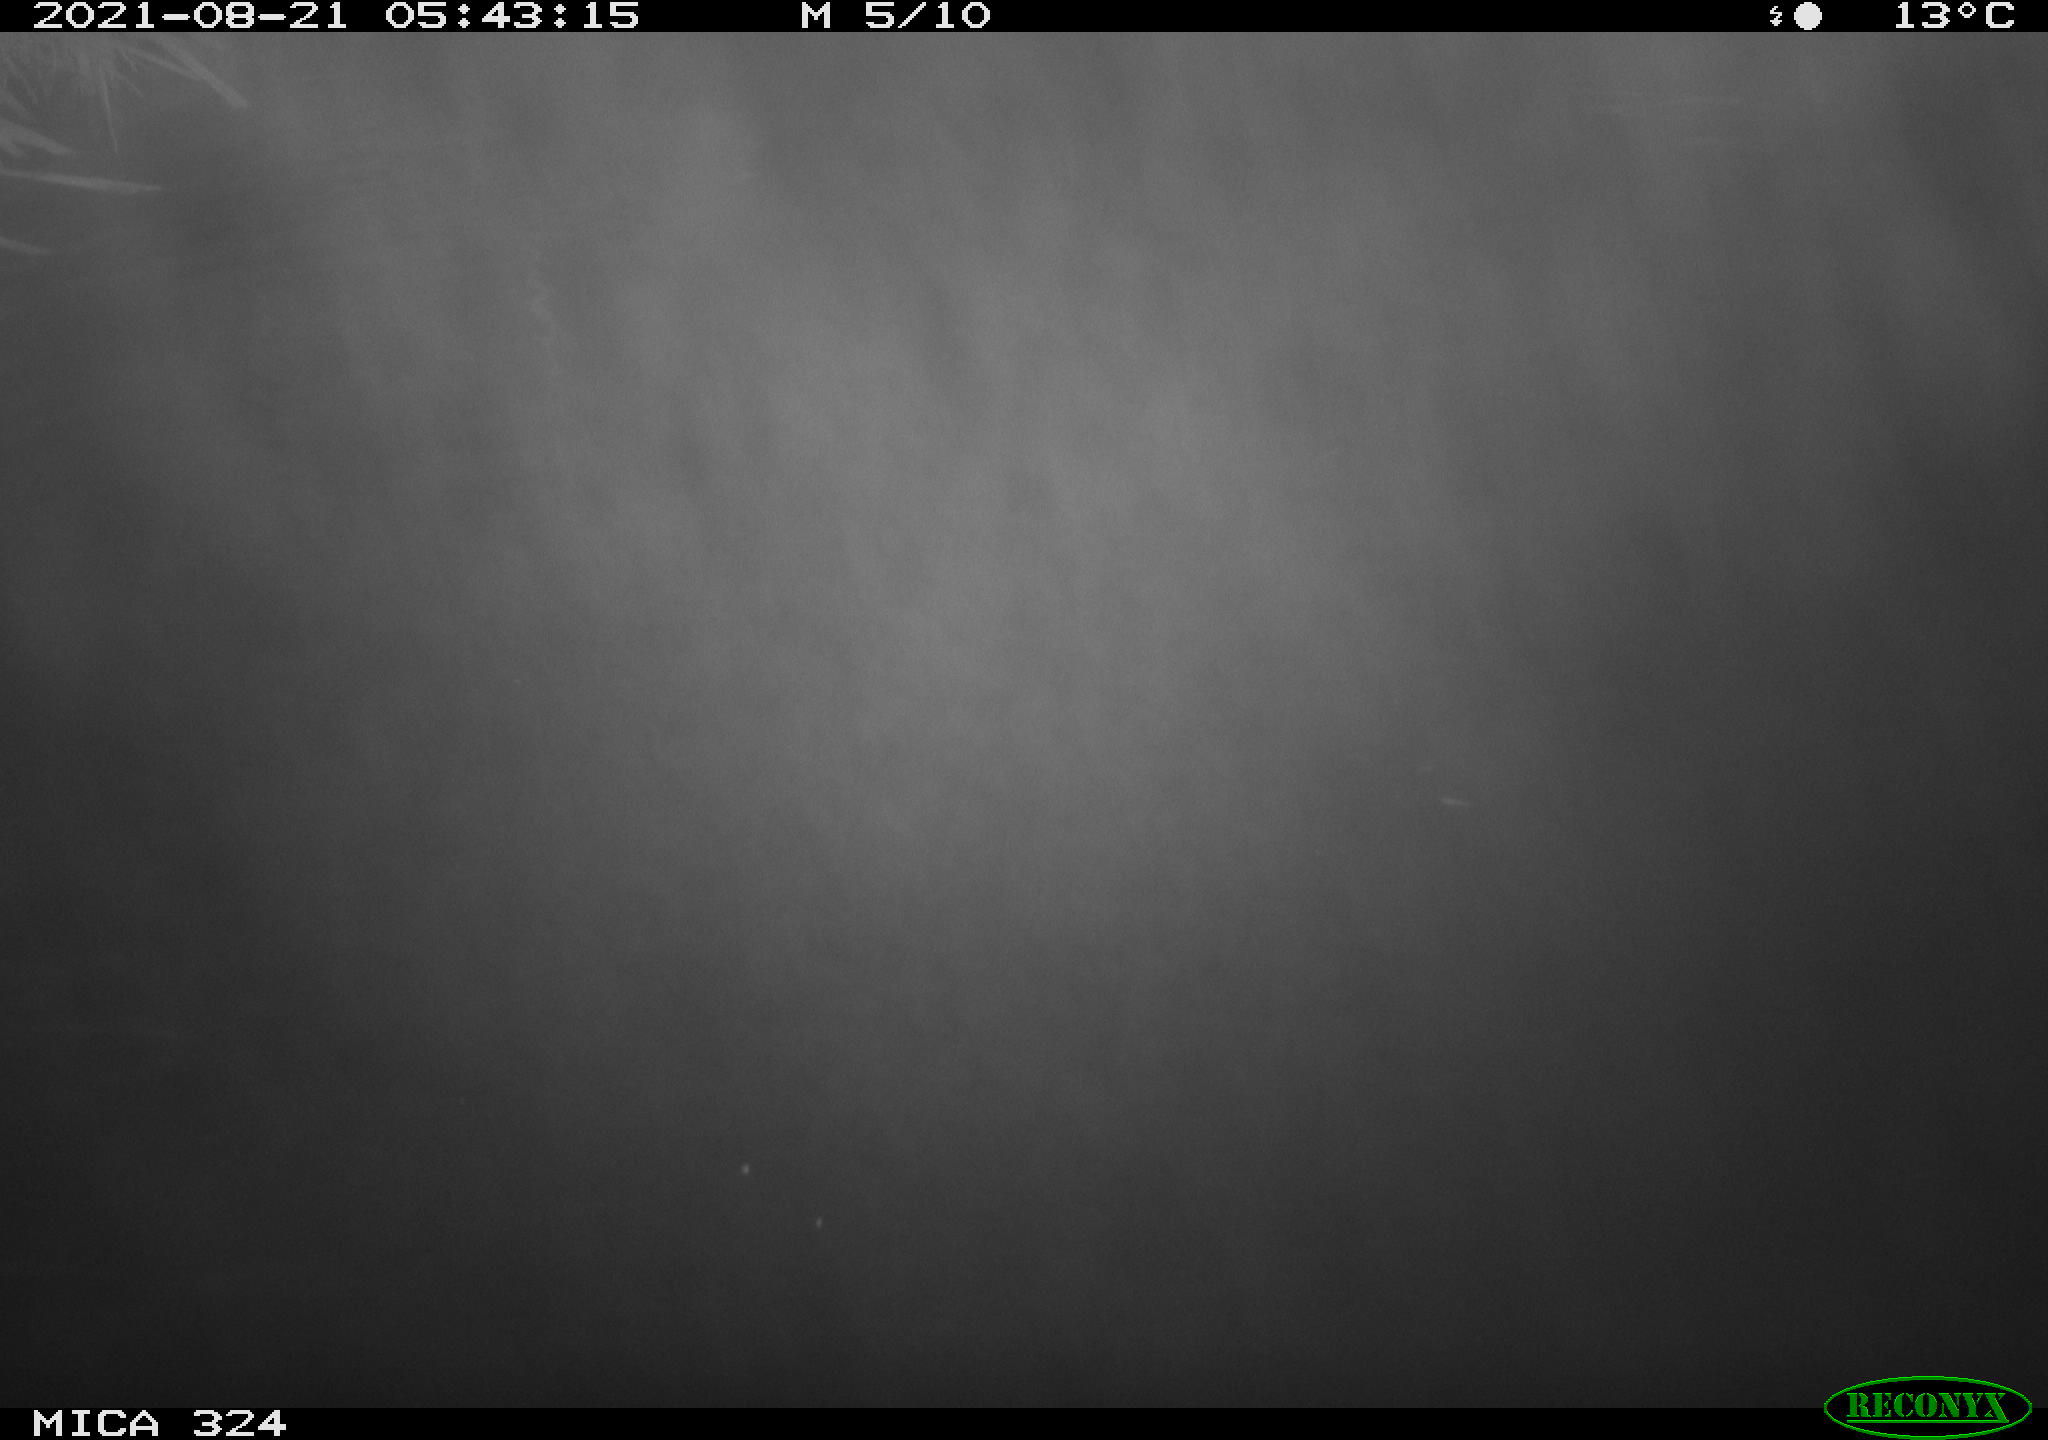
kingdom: Animalia
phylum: Chordata
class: Mammalia
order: Rodentia
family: Cricetidae
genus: Ondatra
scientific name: Ondatra zibethicus
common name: Muskrat
